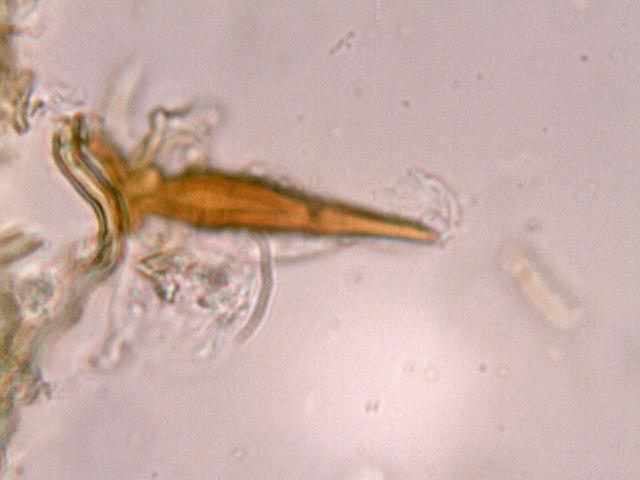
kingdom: Fungi
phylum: Basidiomycota
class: Agaricomycetes
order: Hymenochaetales
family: Hymenochaetaceae
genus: Fuscoporia
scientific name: Fuscoporia ferrea
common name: skorpe-ildporesvamp
